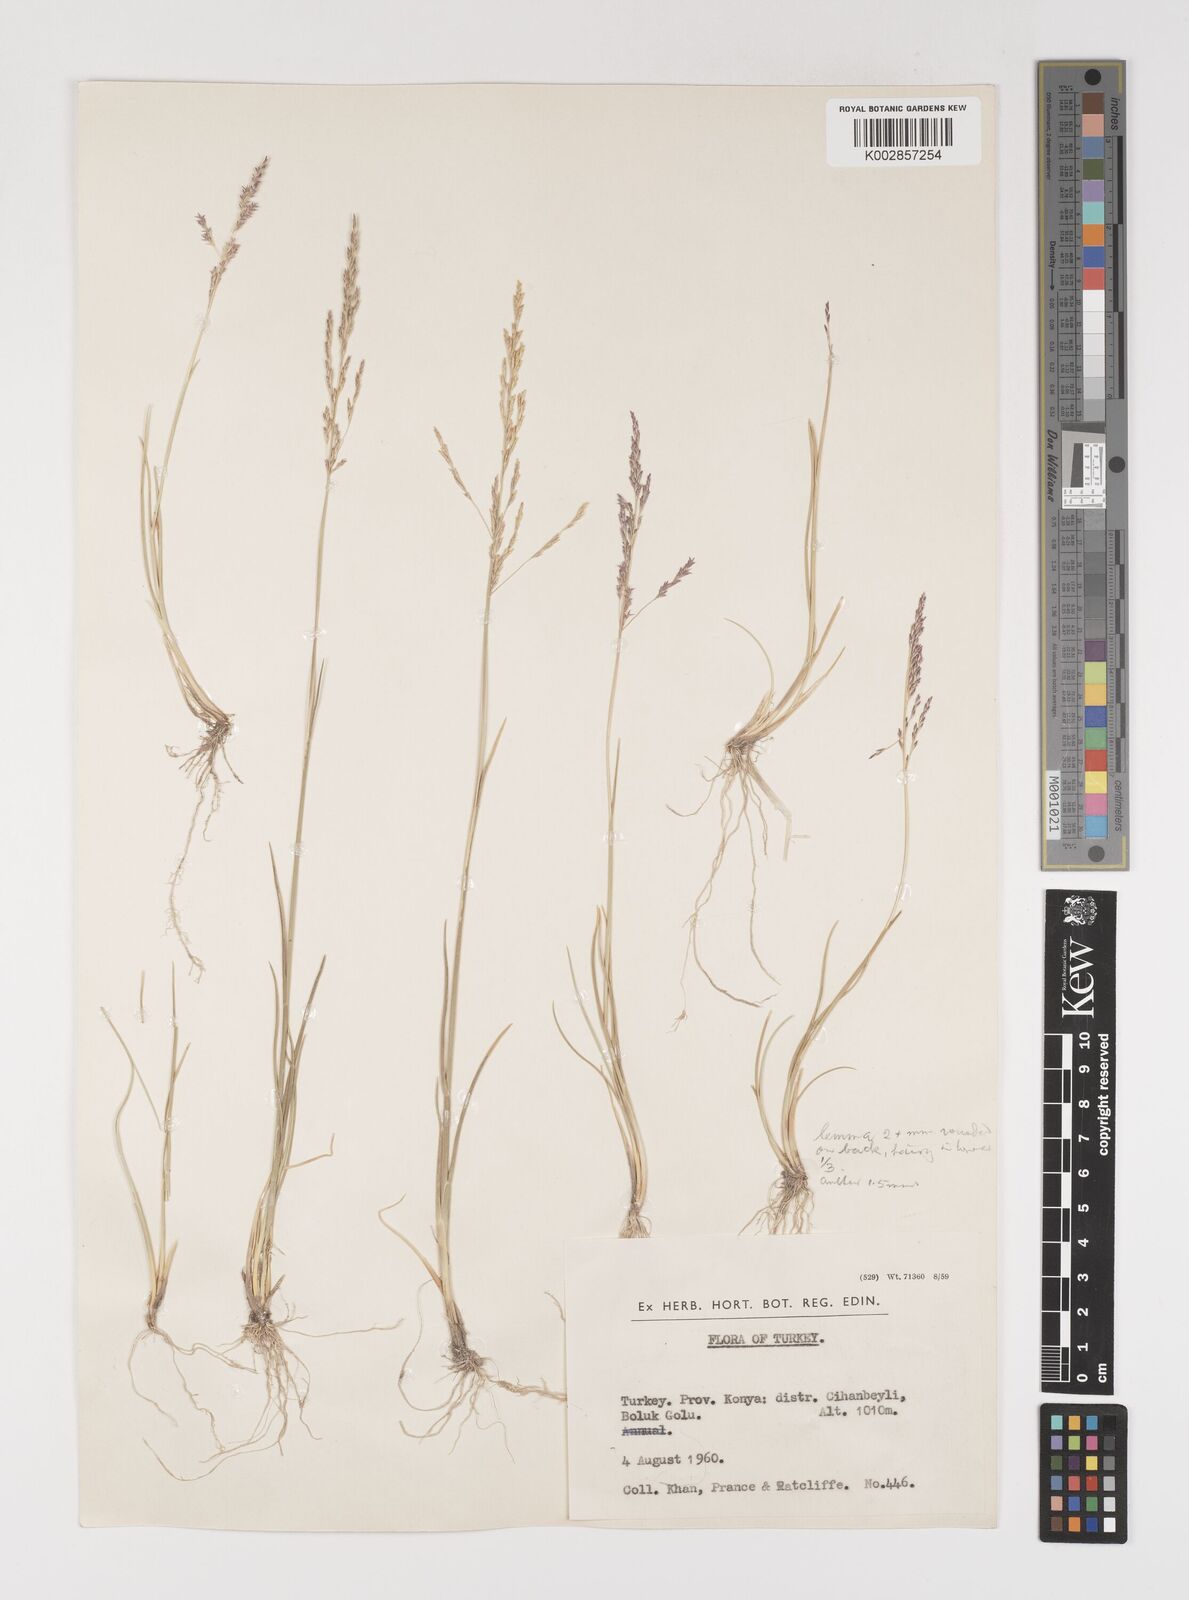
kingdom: Plantae
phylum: Tracheophyta
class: Liliopsida
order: Poales
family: Poaceae
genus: Puccinellia
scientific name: Puccinellia koeieana
